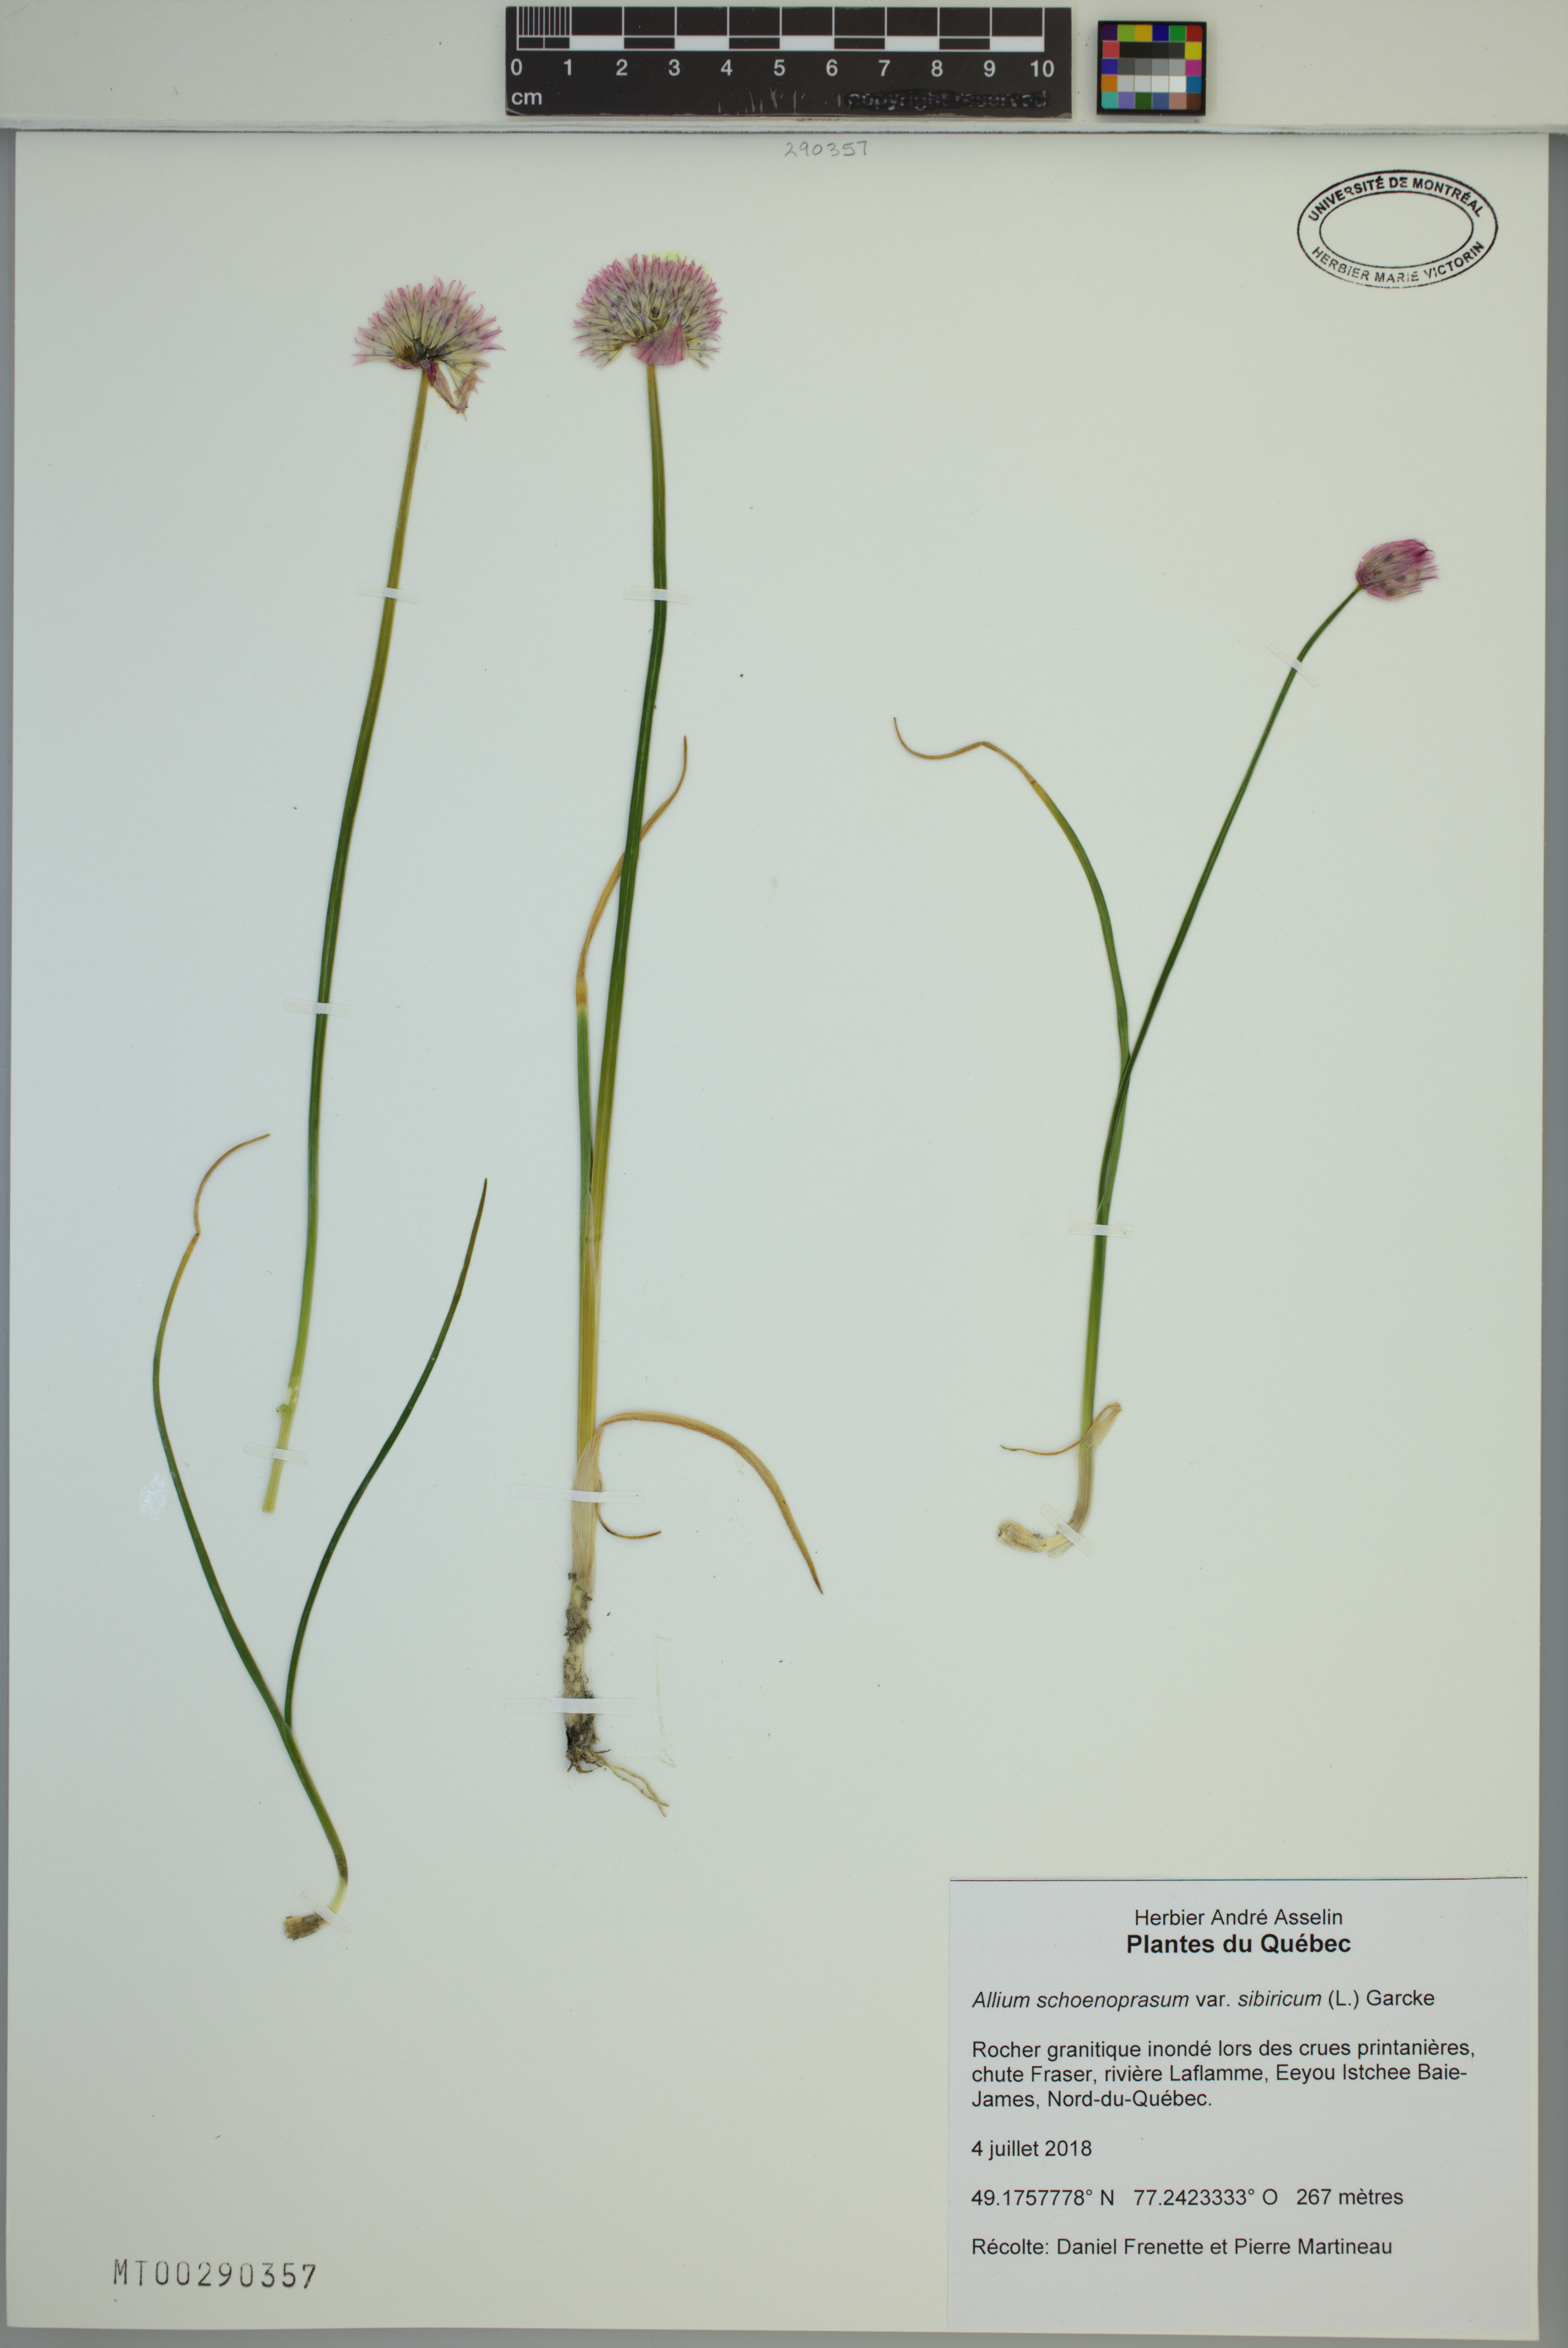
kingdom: Plantae
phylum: Tracheophyta
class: Liliopsida
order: Asparagales
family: Amaryllidaceae
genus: Allium
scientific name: Allium schoenoprasum
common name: Chives
